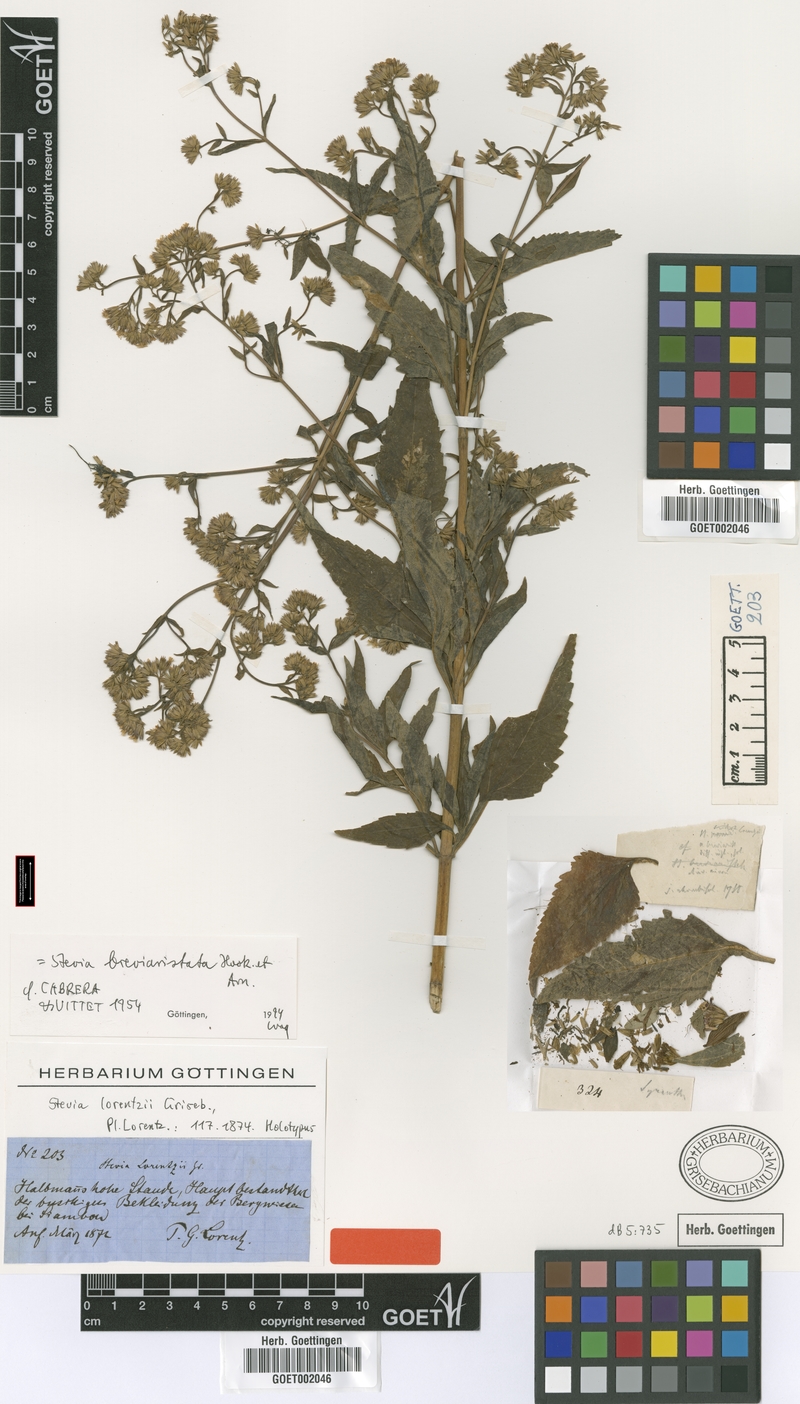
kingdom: Plantae
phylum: Tracheophyta
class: Magnoliopsida
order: Asterales
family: Asteraceae
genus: Stevia
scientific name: Stevia breviaristata
